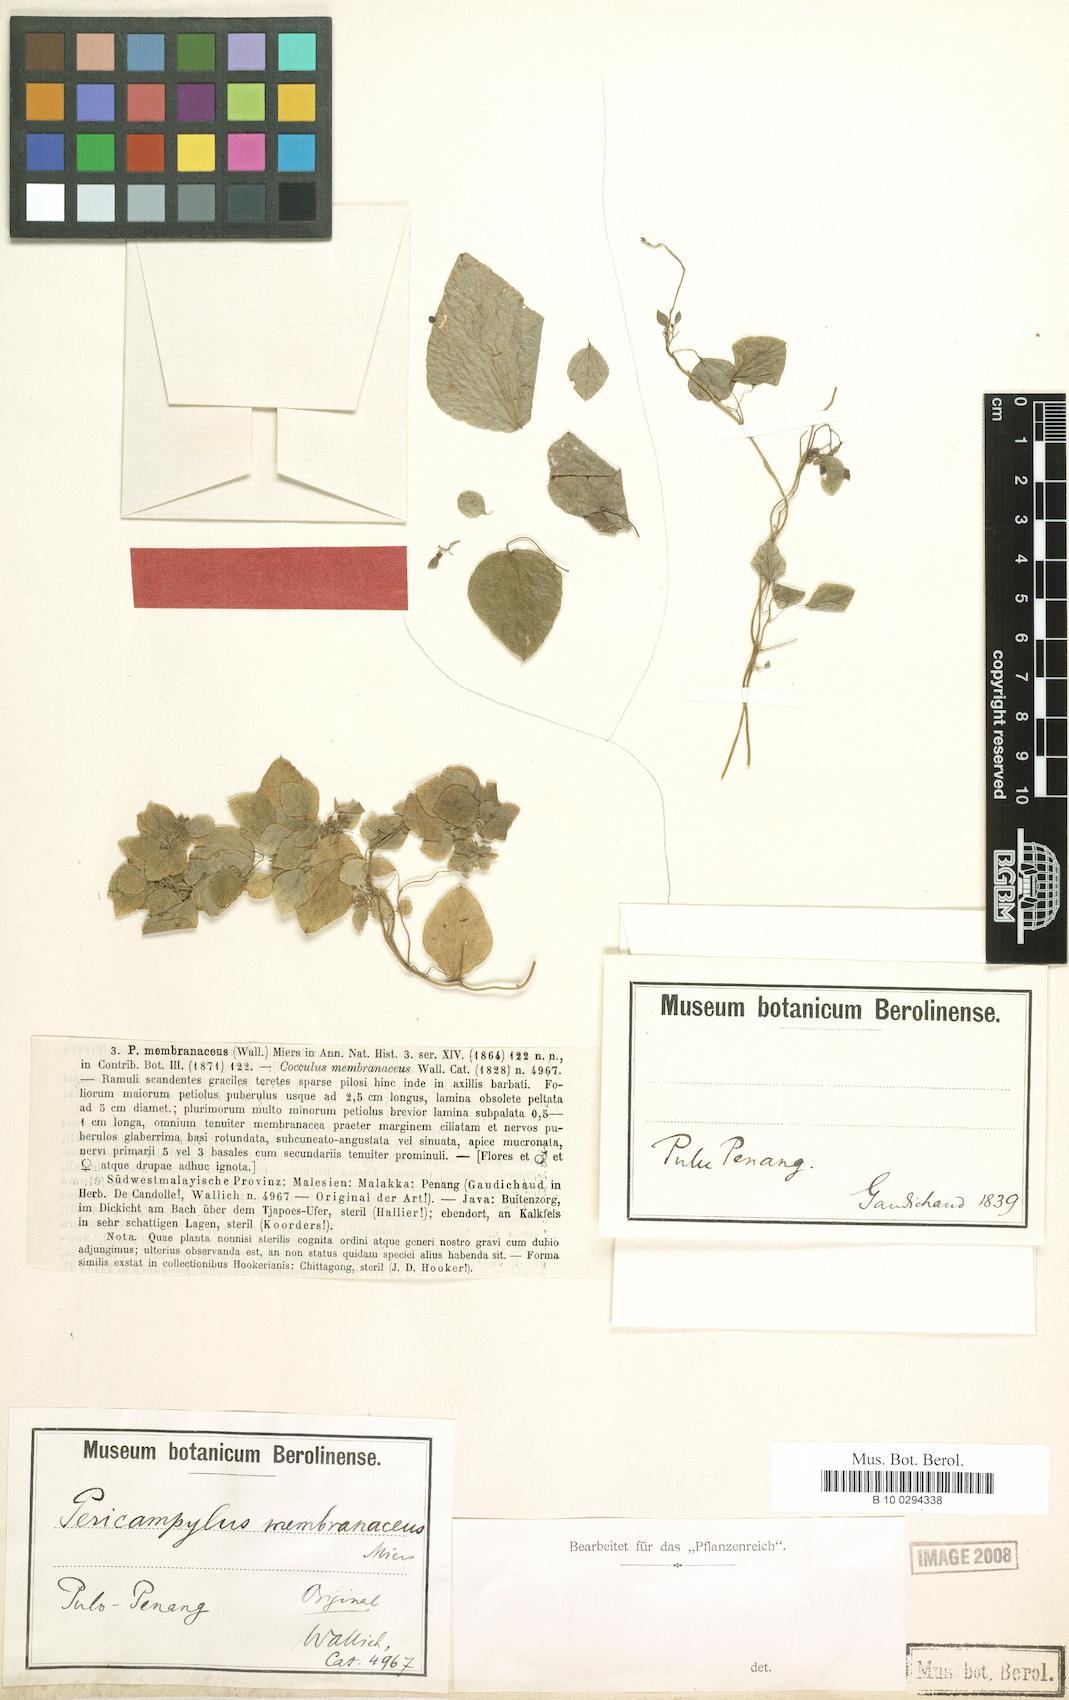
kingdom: Plantae
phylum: Tracheophyta
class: Magnoliopsida
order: Ranunculales
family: Menispermaceae
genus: Cissampelos
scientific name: Cissampelos pareira
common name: Velvetleaf
